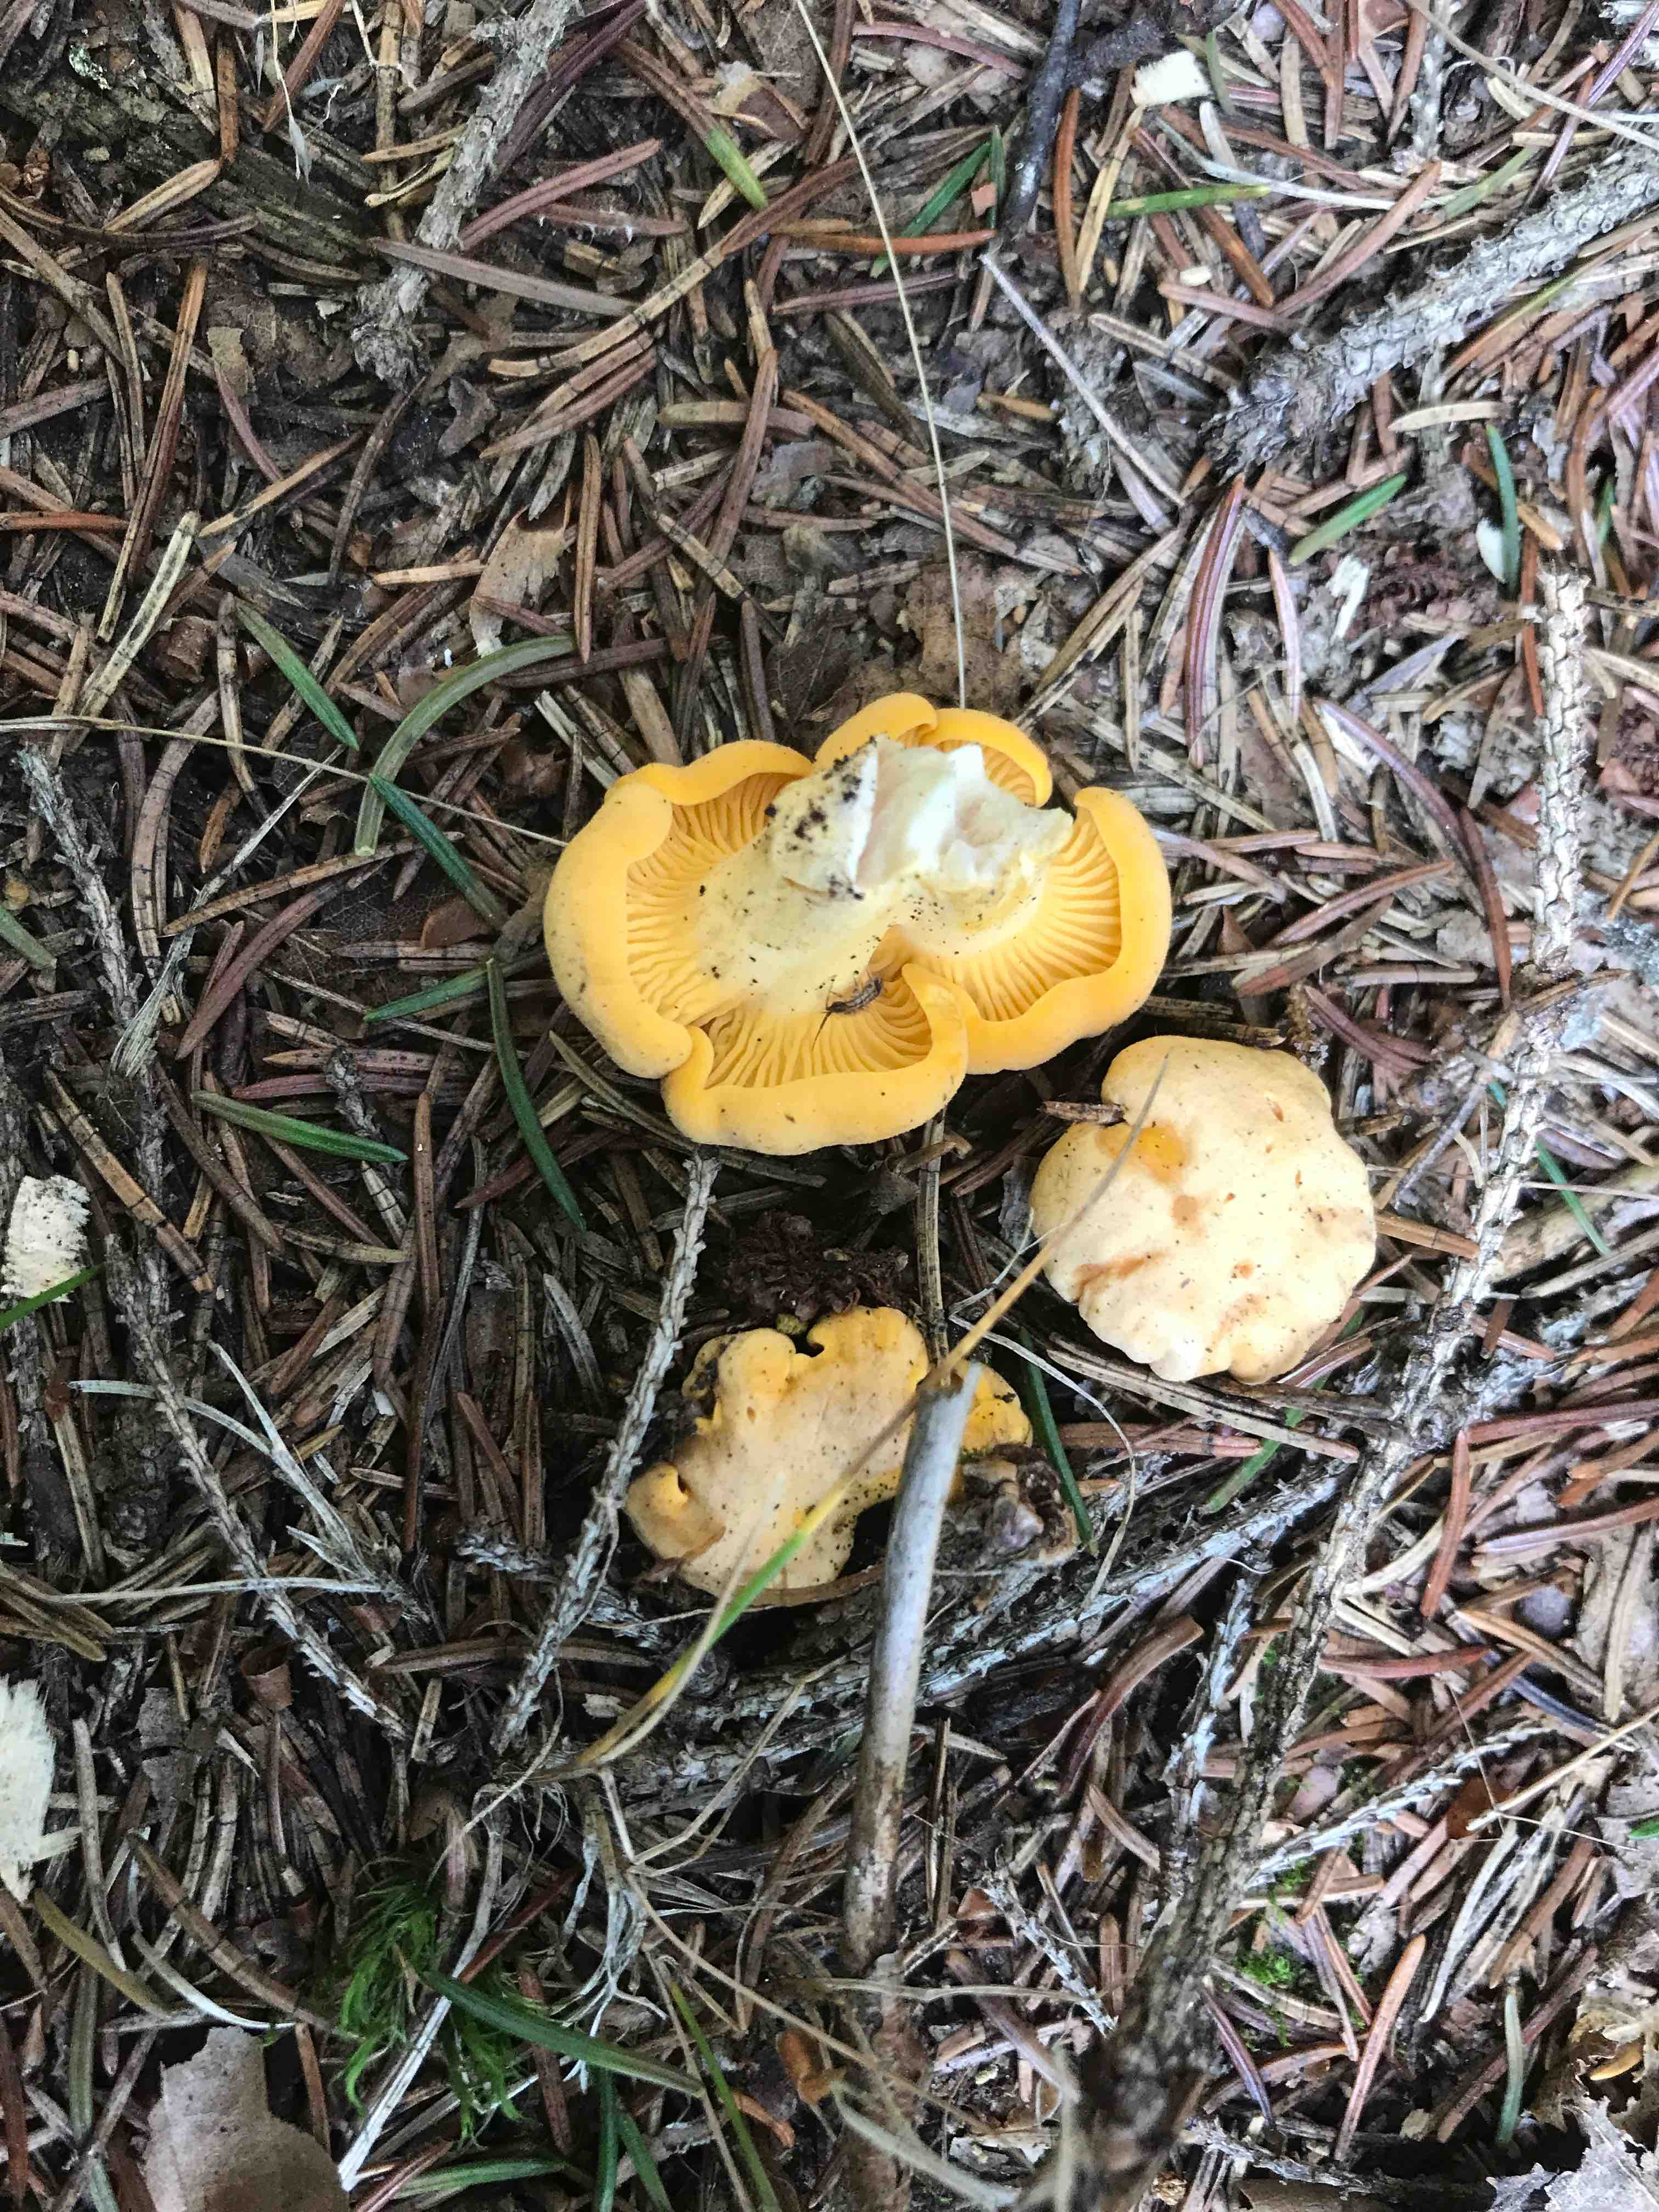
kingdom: Fungi
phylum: Basidiomycota
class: Agaricomycetes
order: Cantharellales
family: Hydnaceae
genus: Cantharellus
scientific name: Cantharellus cibarius
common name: almindelig kantarel
